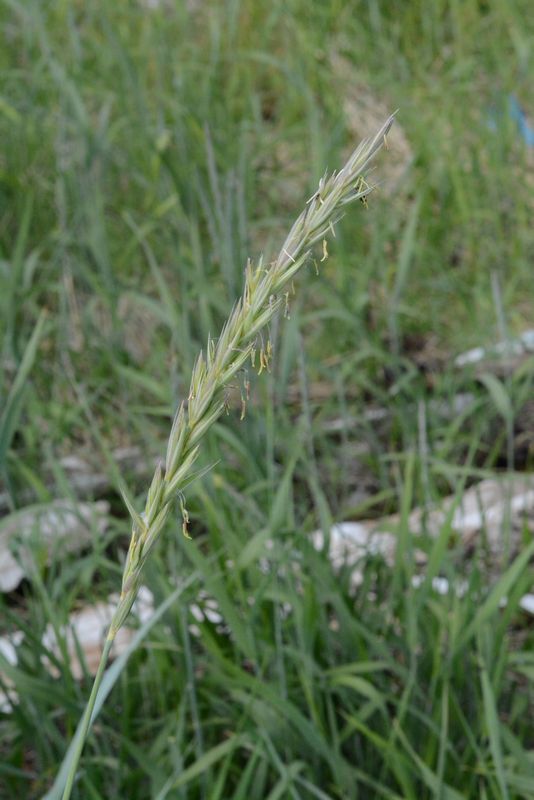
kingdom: Plantae
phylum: Tracheophyta
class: Liliopsida
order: Poales
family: Poaceae
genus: Elymus
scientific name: Elymus arenarius
